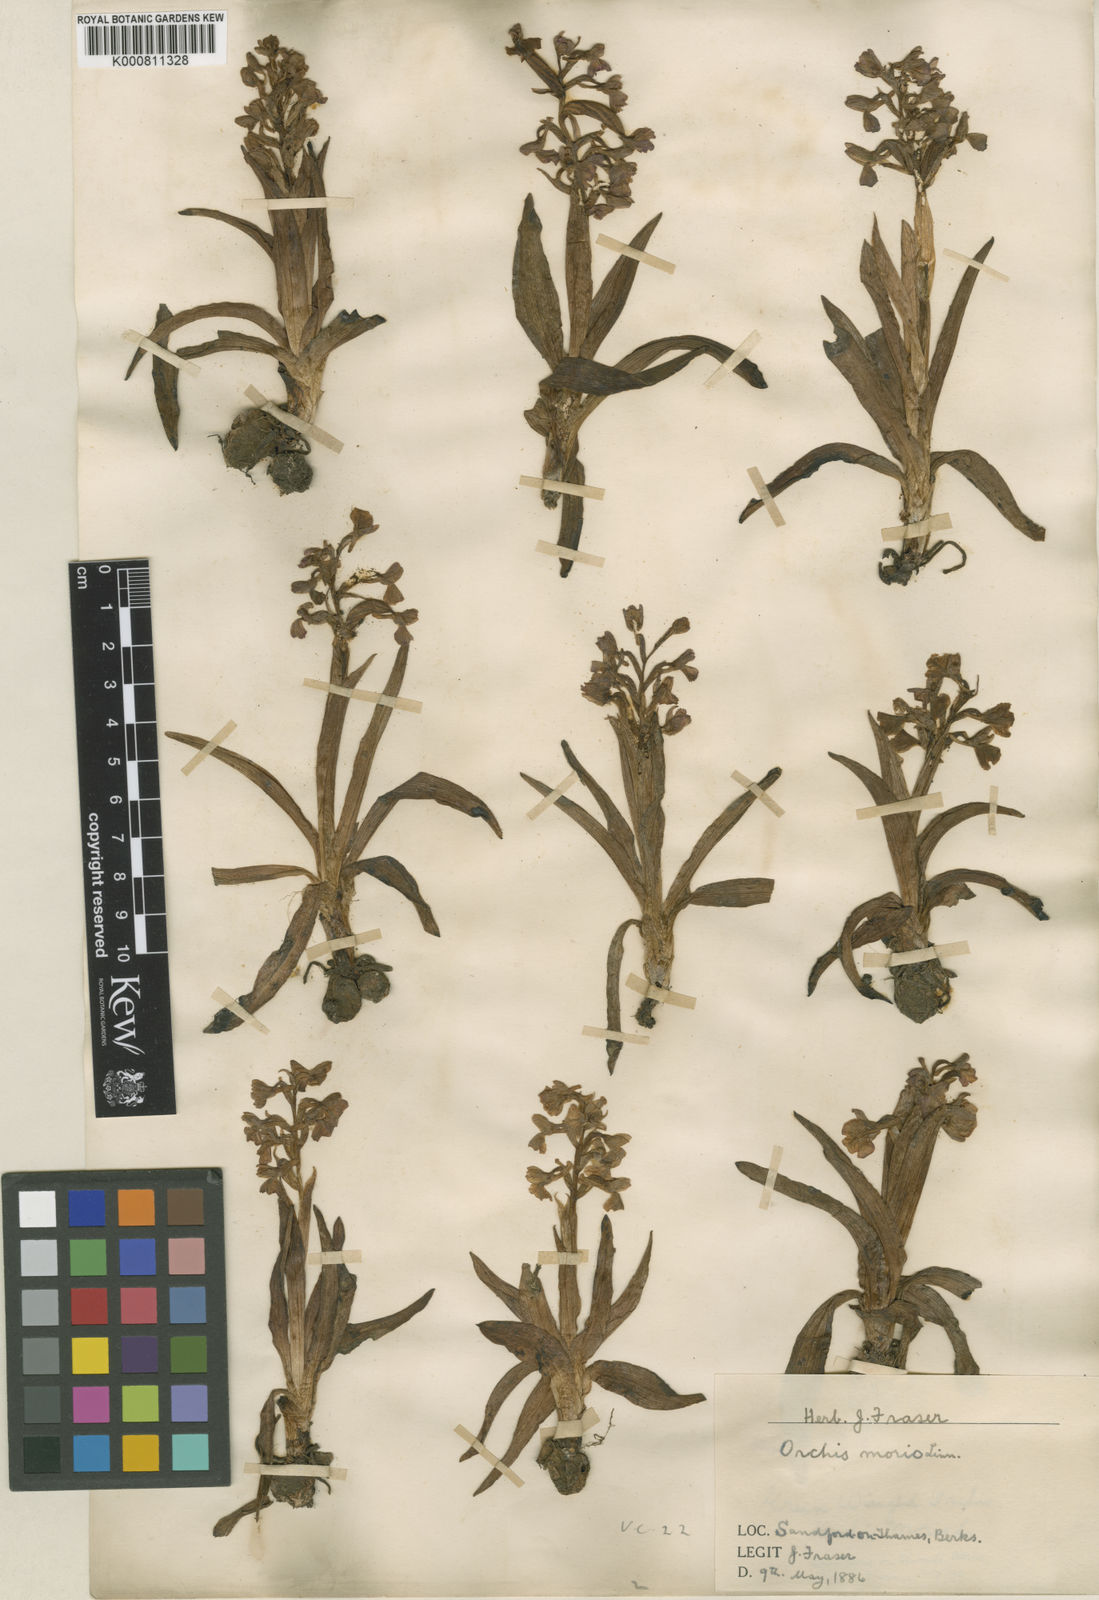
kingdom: Plantae
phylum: Tracheophyta
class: Liliopsida
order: Asparagales
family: Orchidaceae
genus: Anacamptis
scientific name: Anacamptis morio
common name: Green-winged orchid
